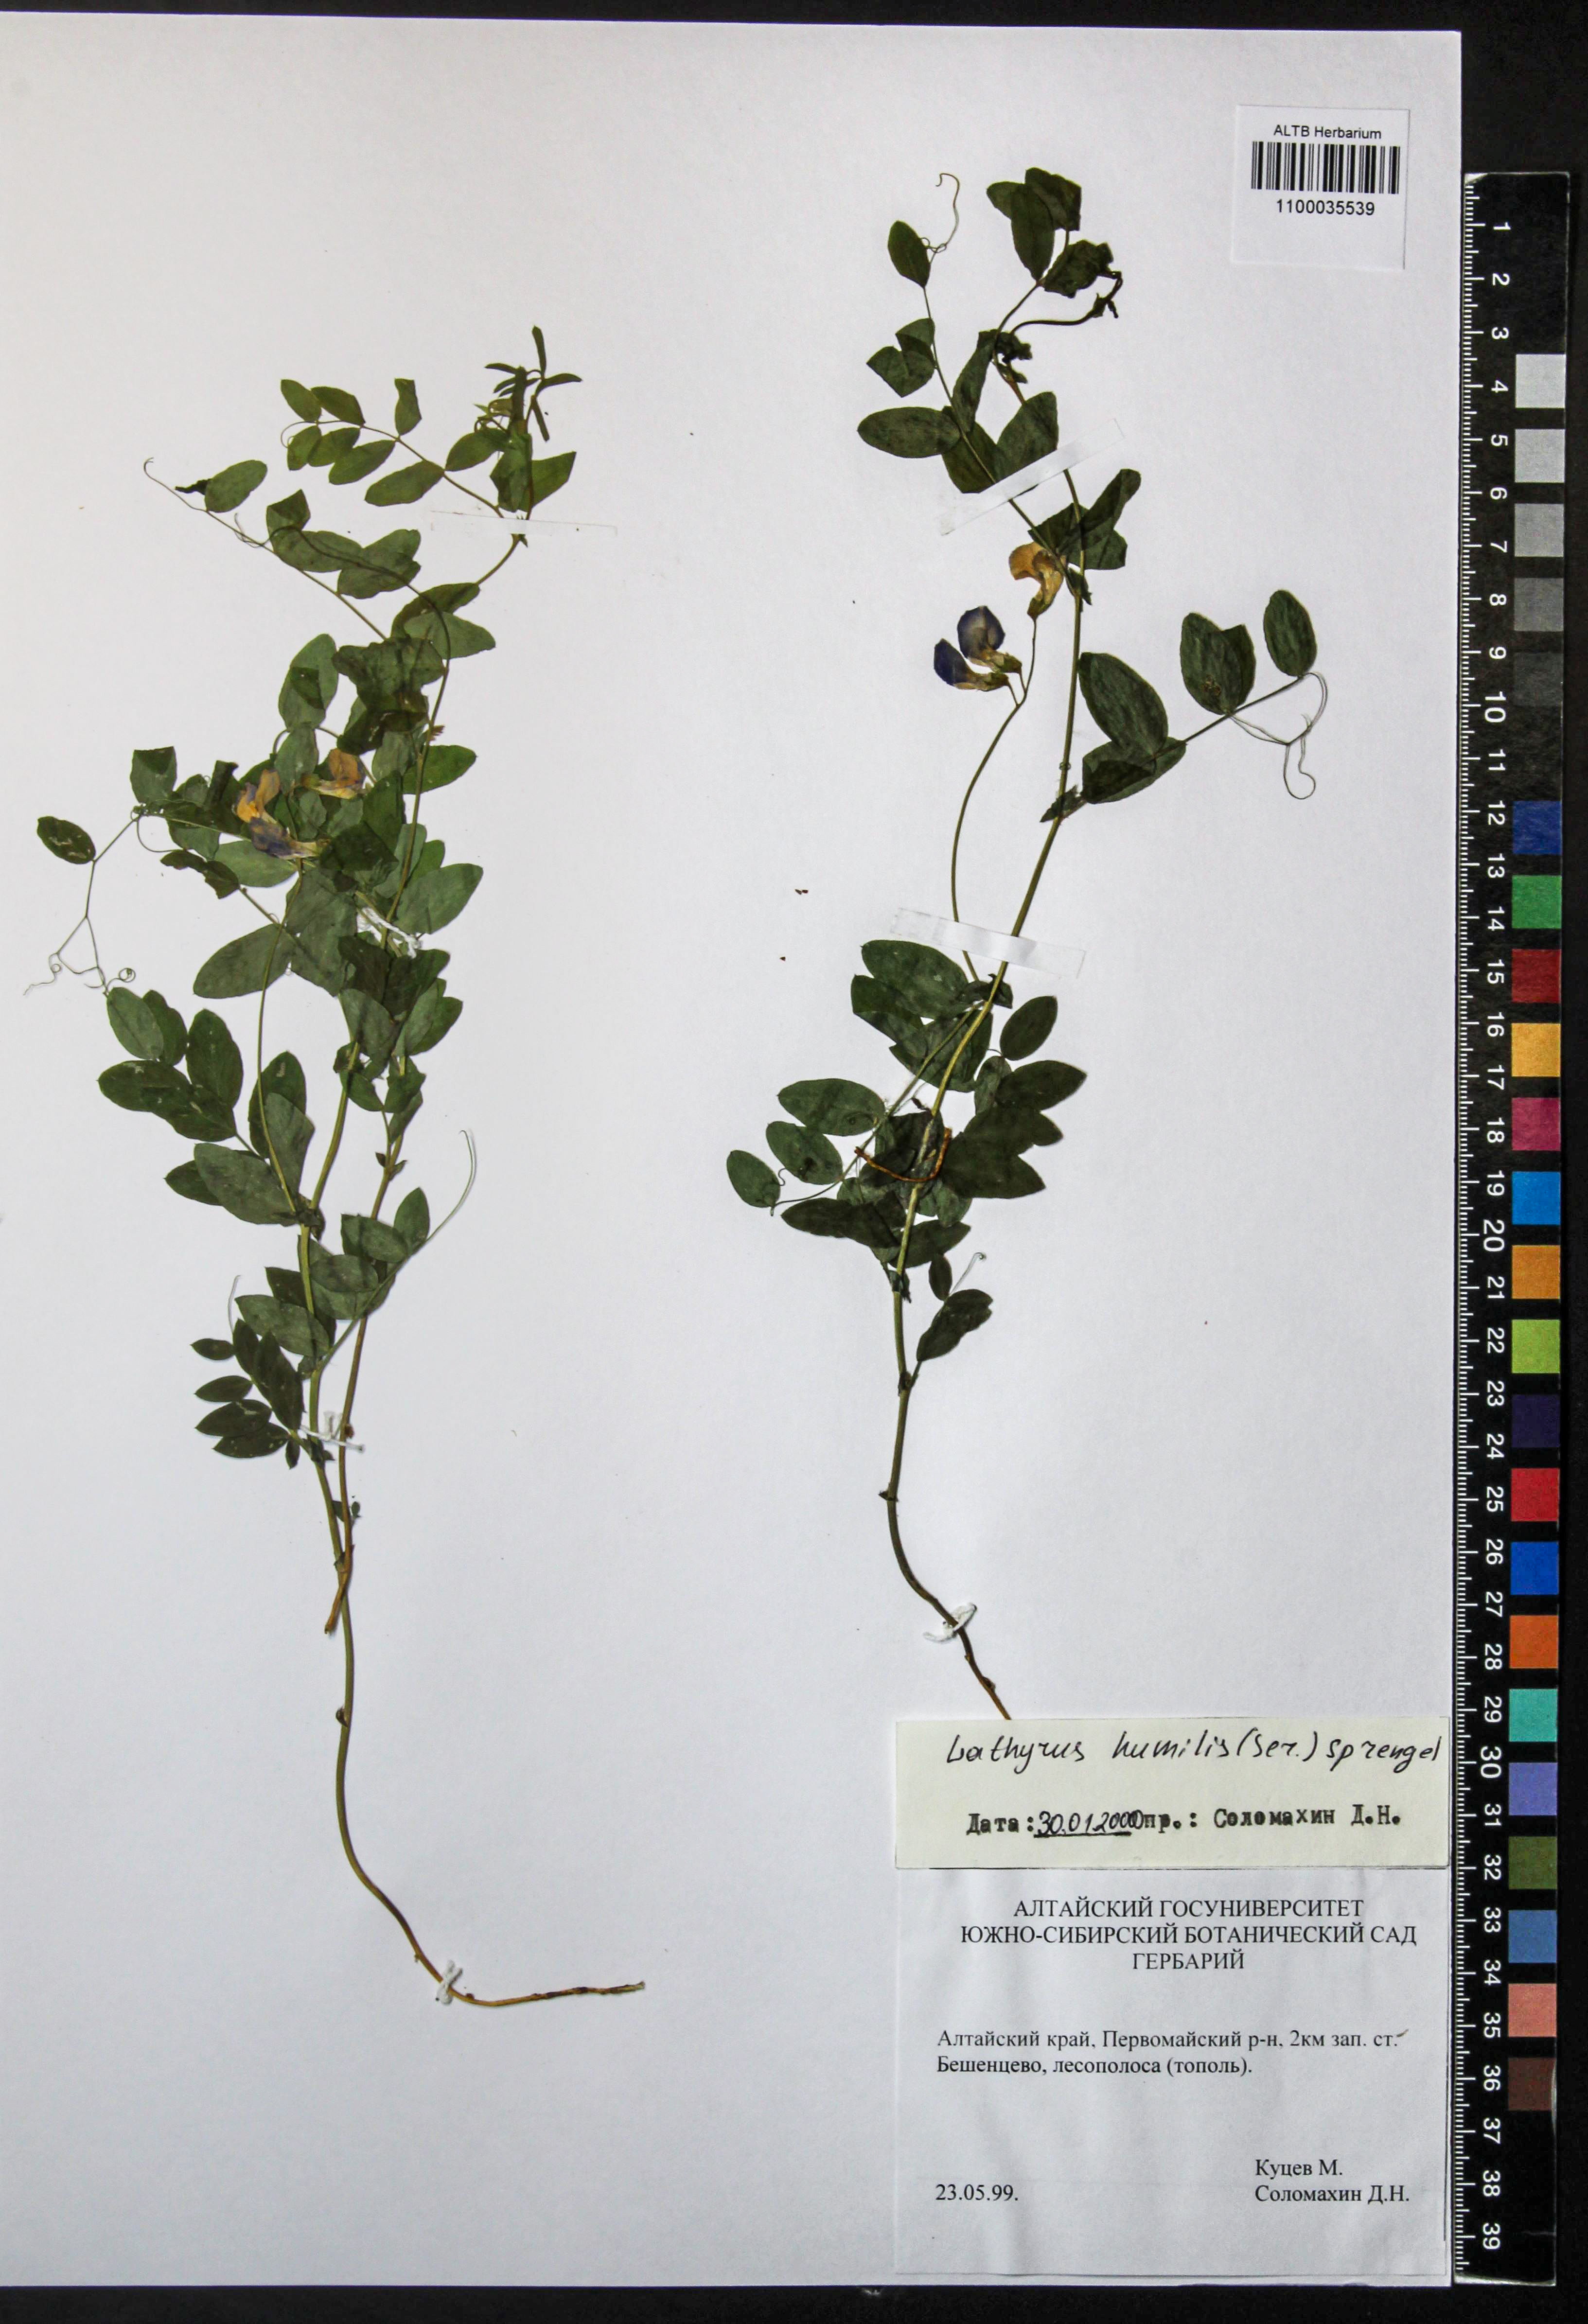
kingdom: Plantae
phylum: Tracheophyta
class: Magnoliopsida
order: Fabales
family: Fabaceae
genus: Lathyrus
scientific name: Lathyrus humilis
